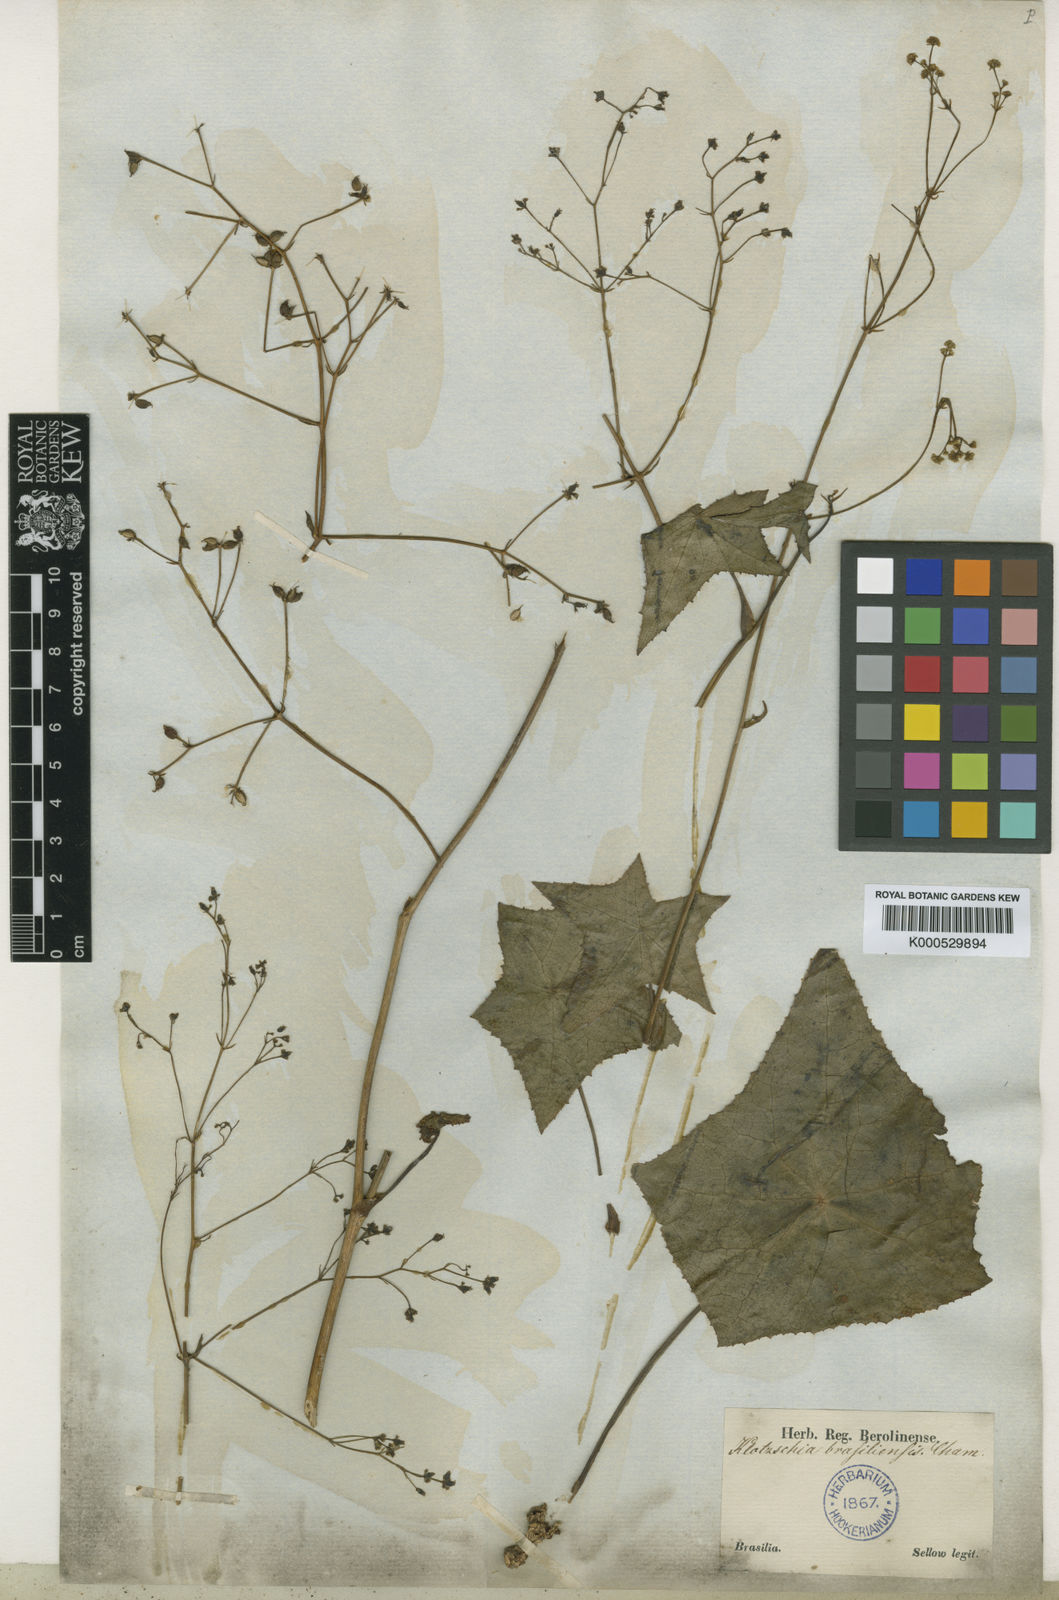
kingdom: Plantae
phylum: Tracheophyta
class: Magnoliopsida
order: Apiales
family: Apiaceae
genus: Klotzschia
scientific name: Klotzschia brasiliensis
